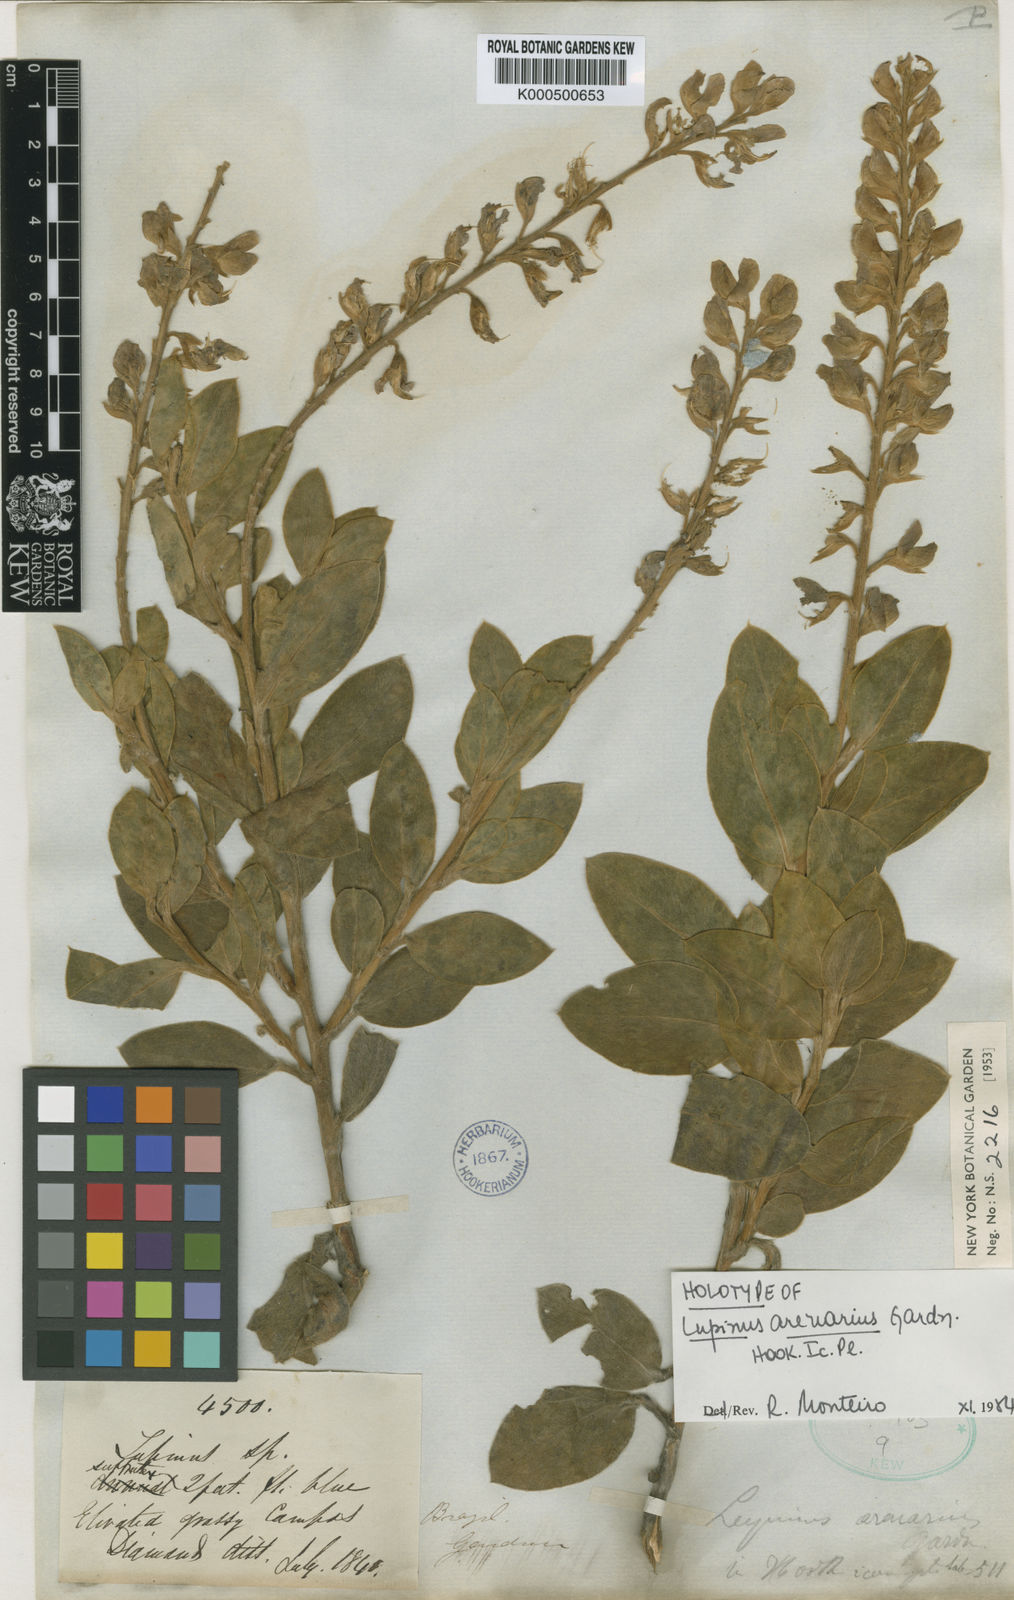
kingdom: Plantae
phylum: Tracheophyta
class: Magnoliopsida
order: Fabales
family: Fabaceae
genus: Lupinus
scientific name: Lupinus arenarius
